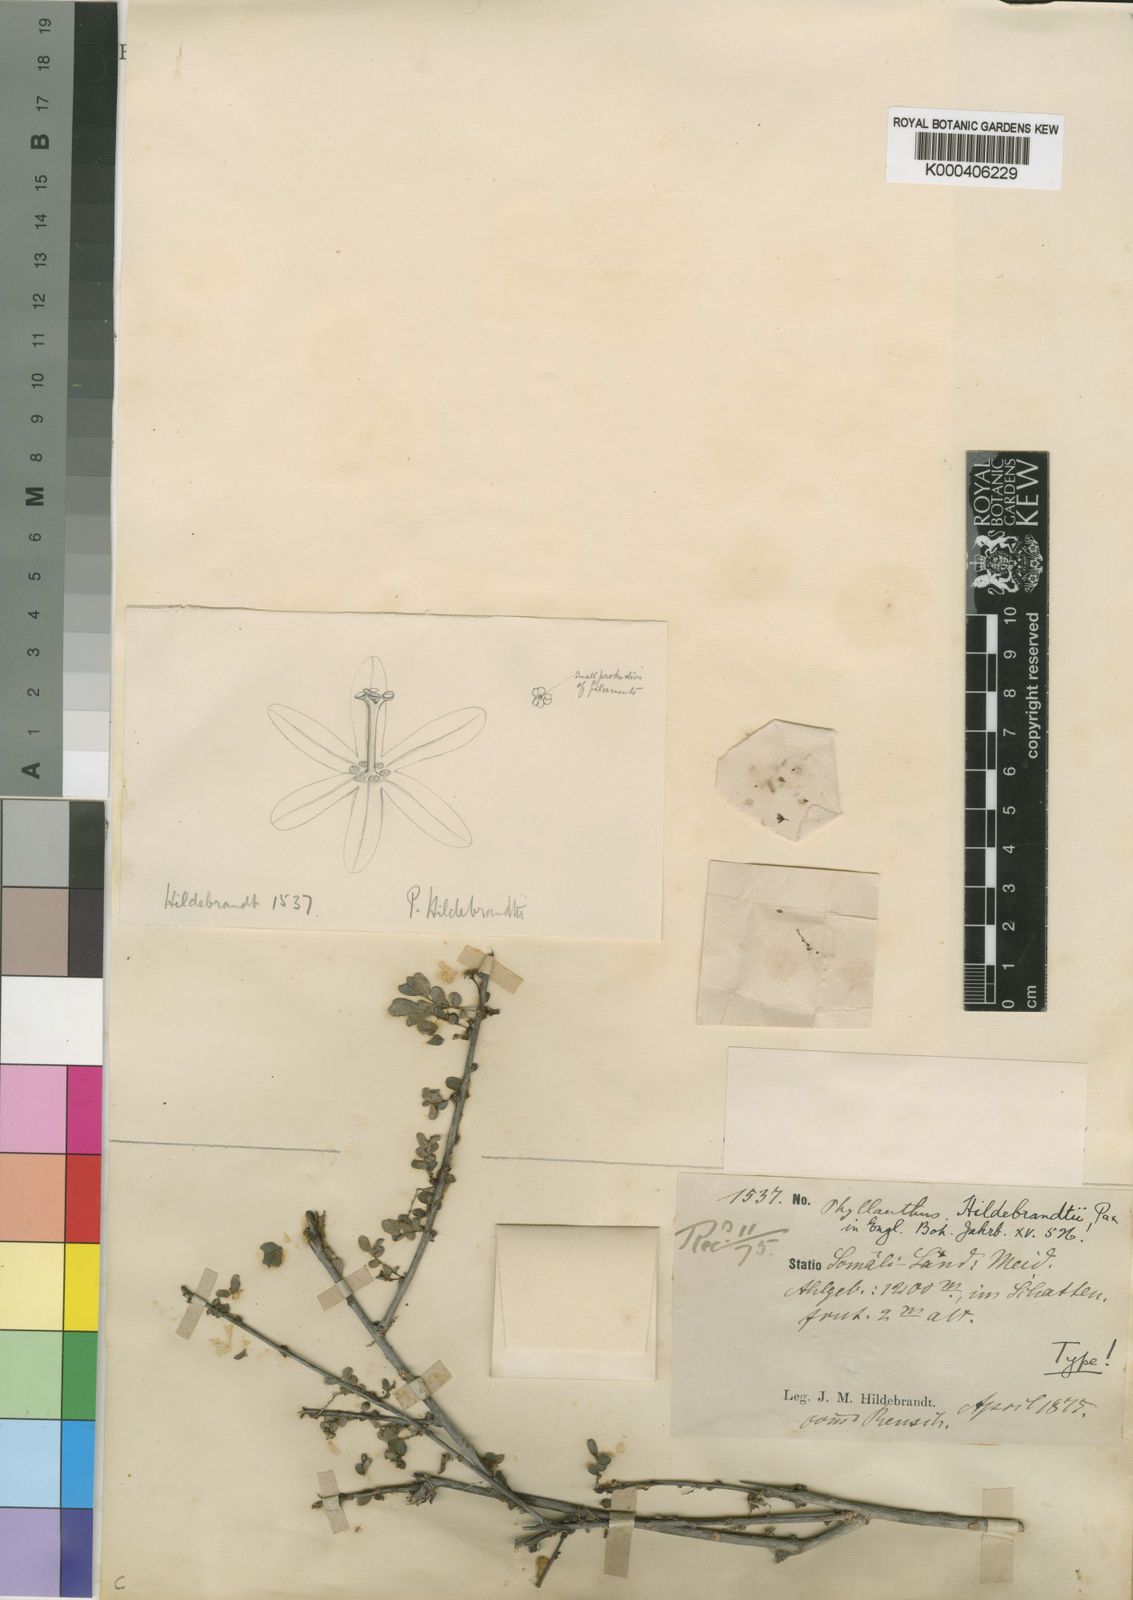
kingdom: Plantae
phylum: Tracheophyta
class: Magnoliopsida
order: Malpighiales
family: Phyllanthaceae
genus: Phyllanthus
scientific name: Phyllanthus hildebrandtii
